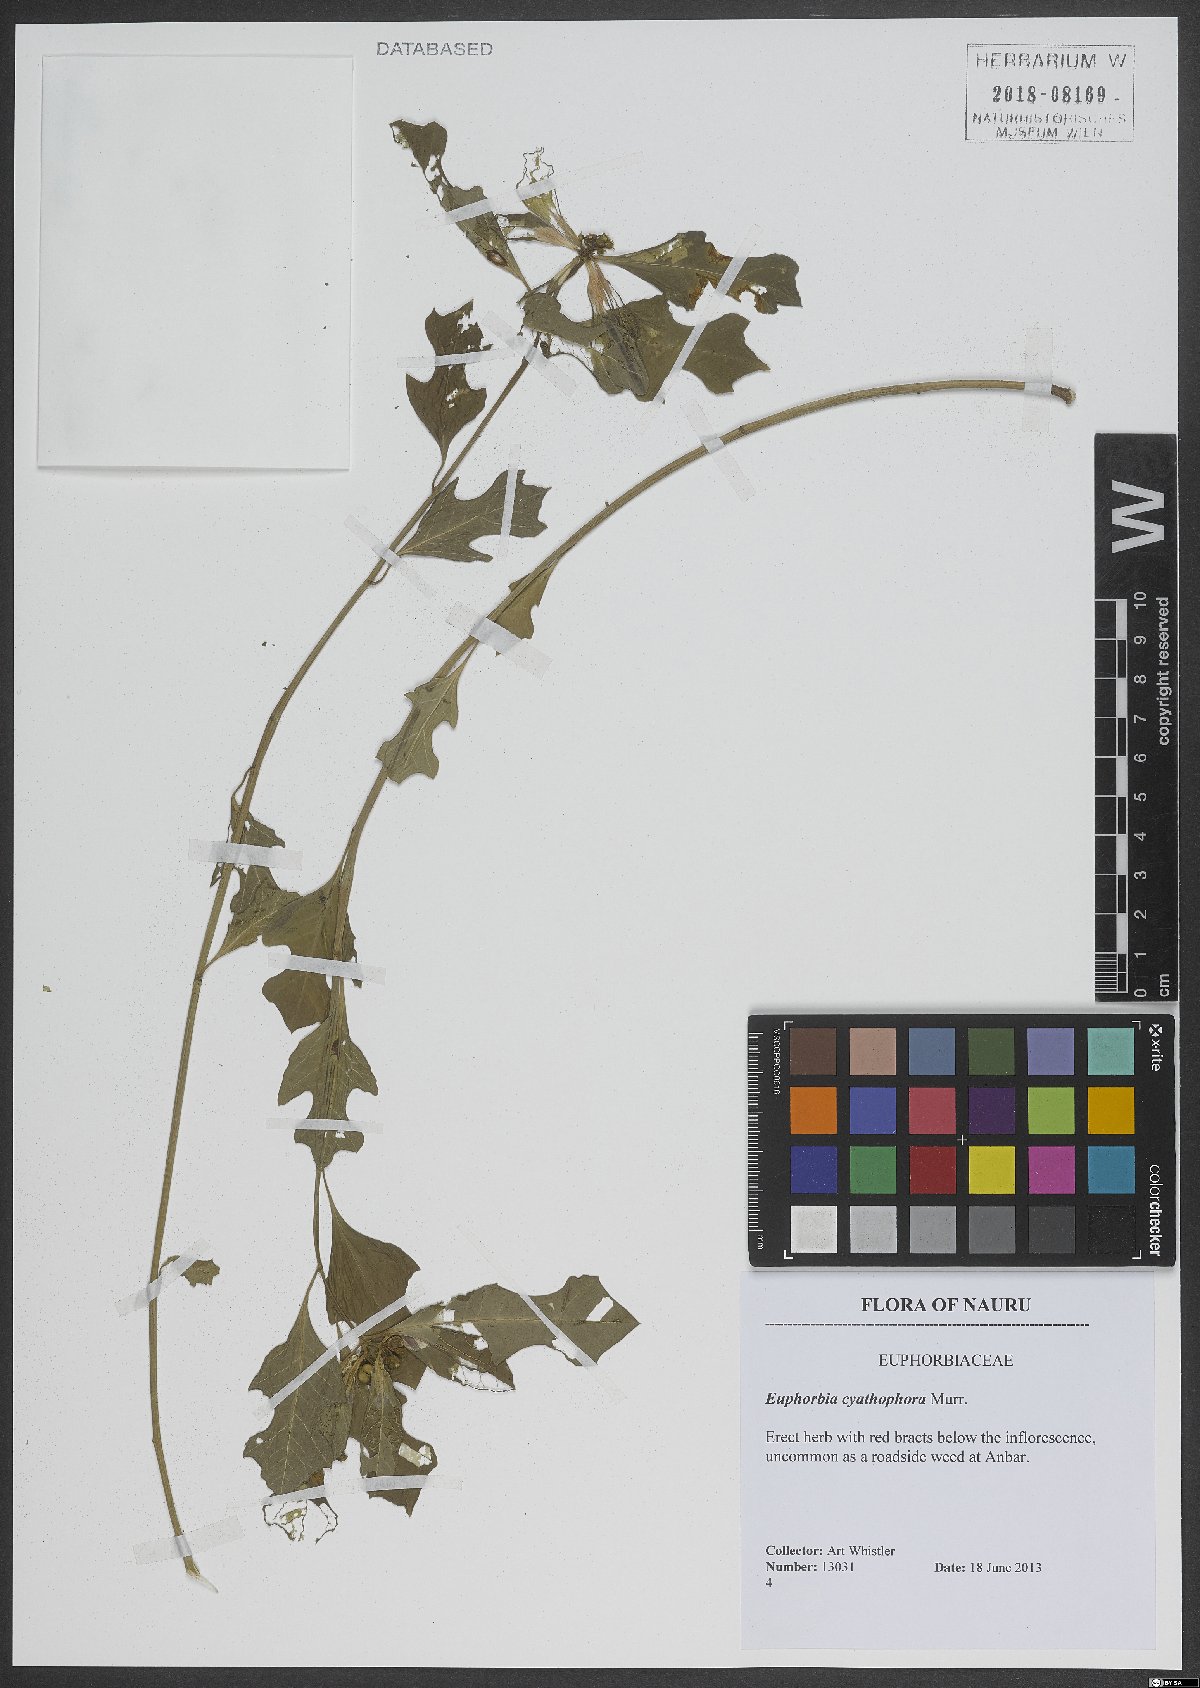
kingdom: Plantae
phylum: Tracheophyta
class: Magnoliopsida
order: Malpighiales
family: Euphorbiaceae
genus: Euphorbia
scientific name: Euphorbia heterophylla
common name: Mexican fireplant
